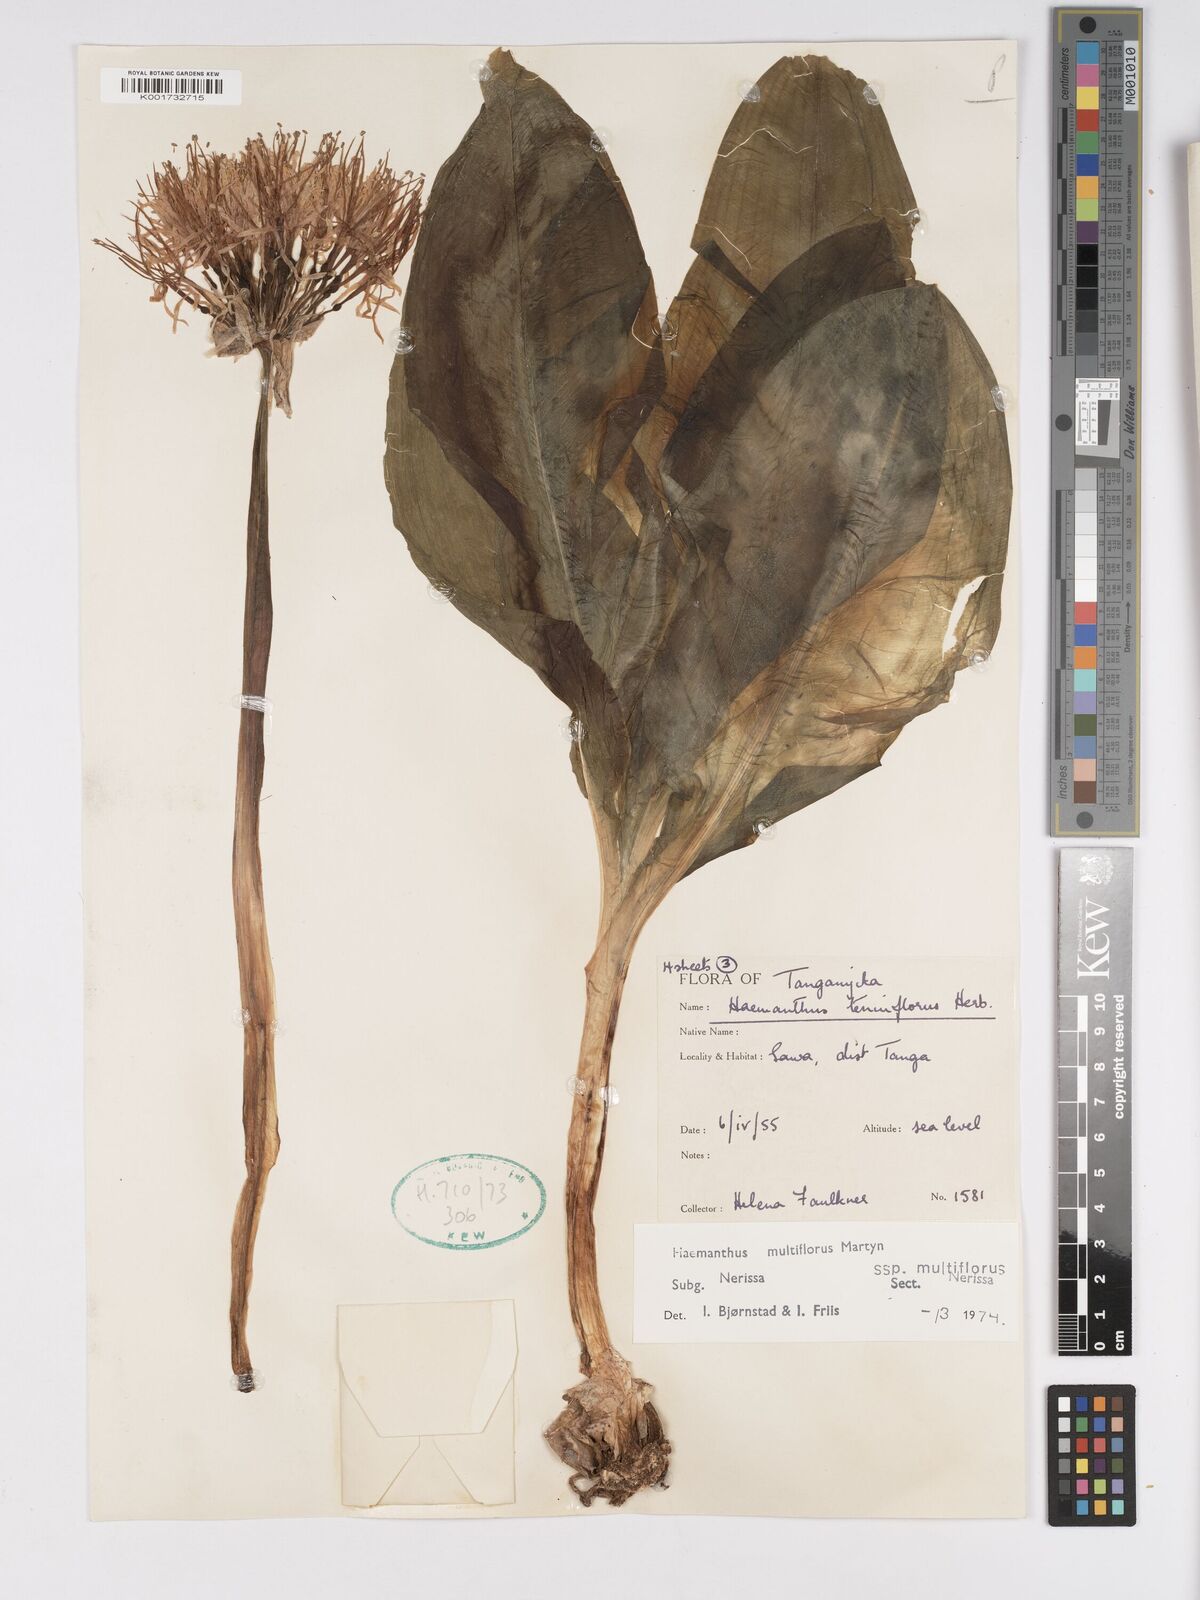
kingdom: Plantae
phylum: Tracheophyta
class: Liliopsida
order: Asparagales
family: Amaryllidaceae
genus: Scadoxus
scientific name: Scadoxus multiflorus
